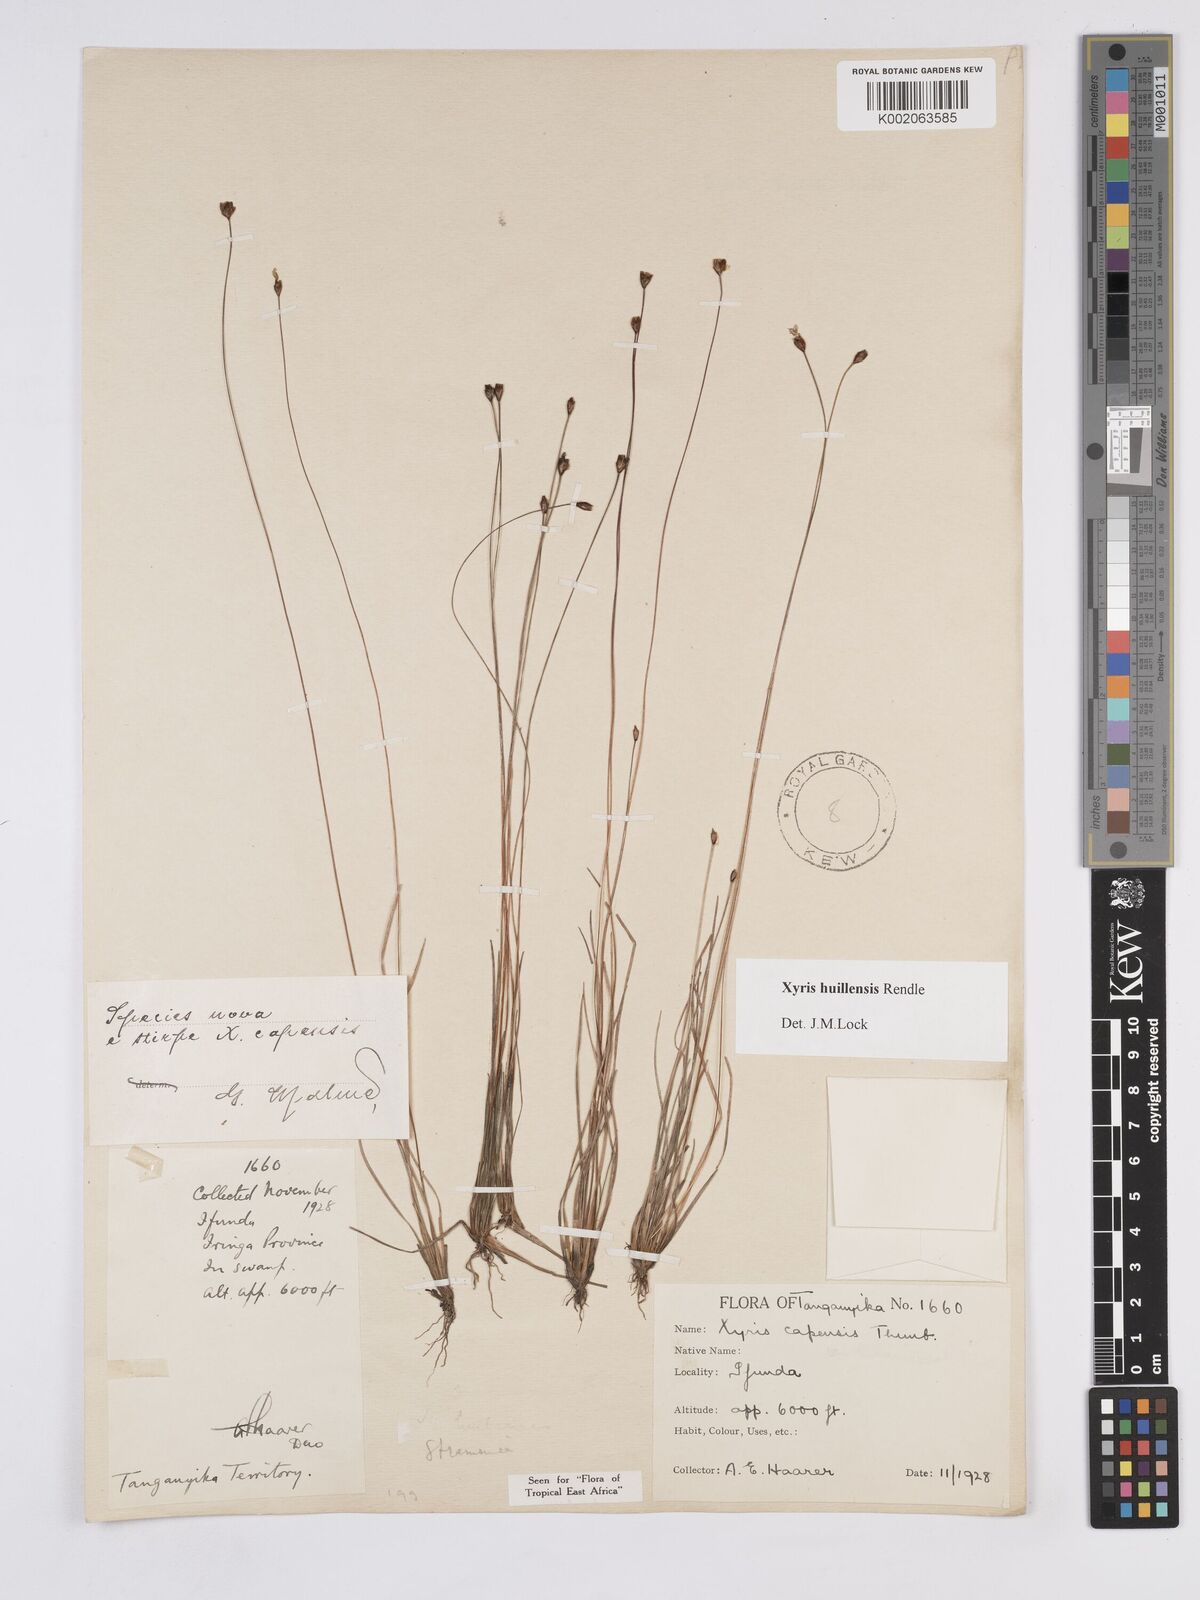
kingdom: Plantae
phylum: Tracheophyta
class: Liliopsida
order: Poales
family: Xyridaceae
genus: Xyris
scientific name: Xyris huillensis
